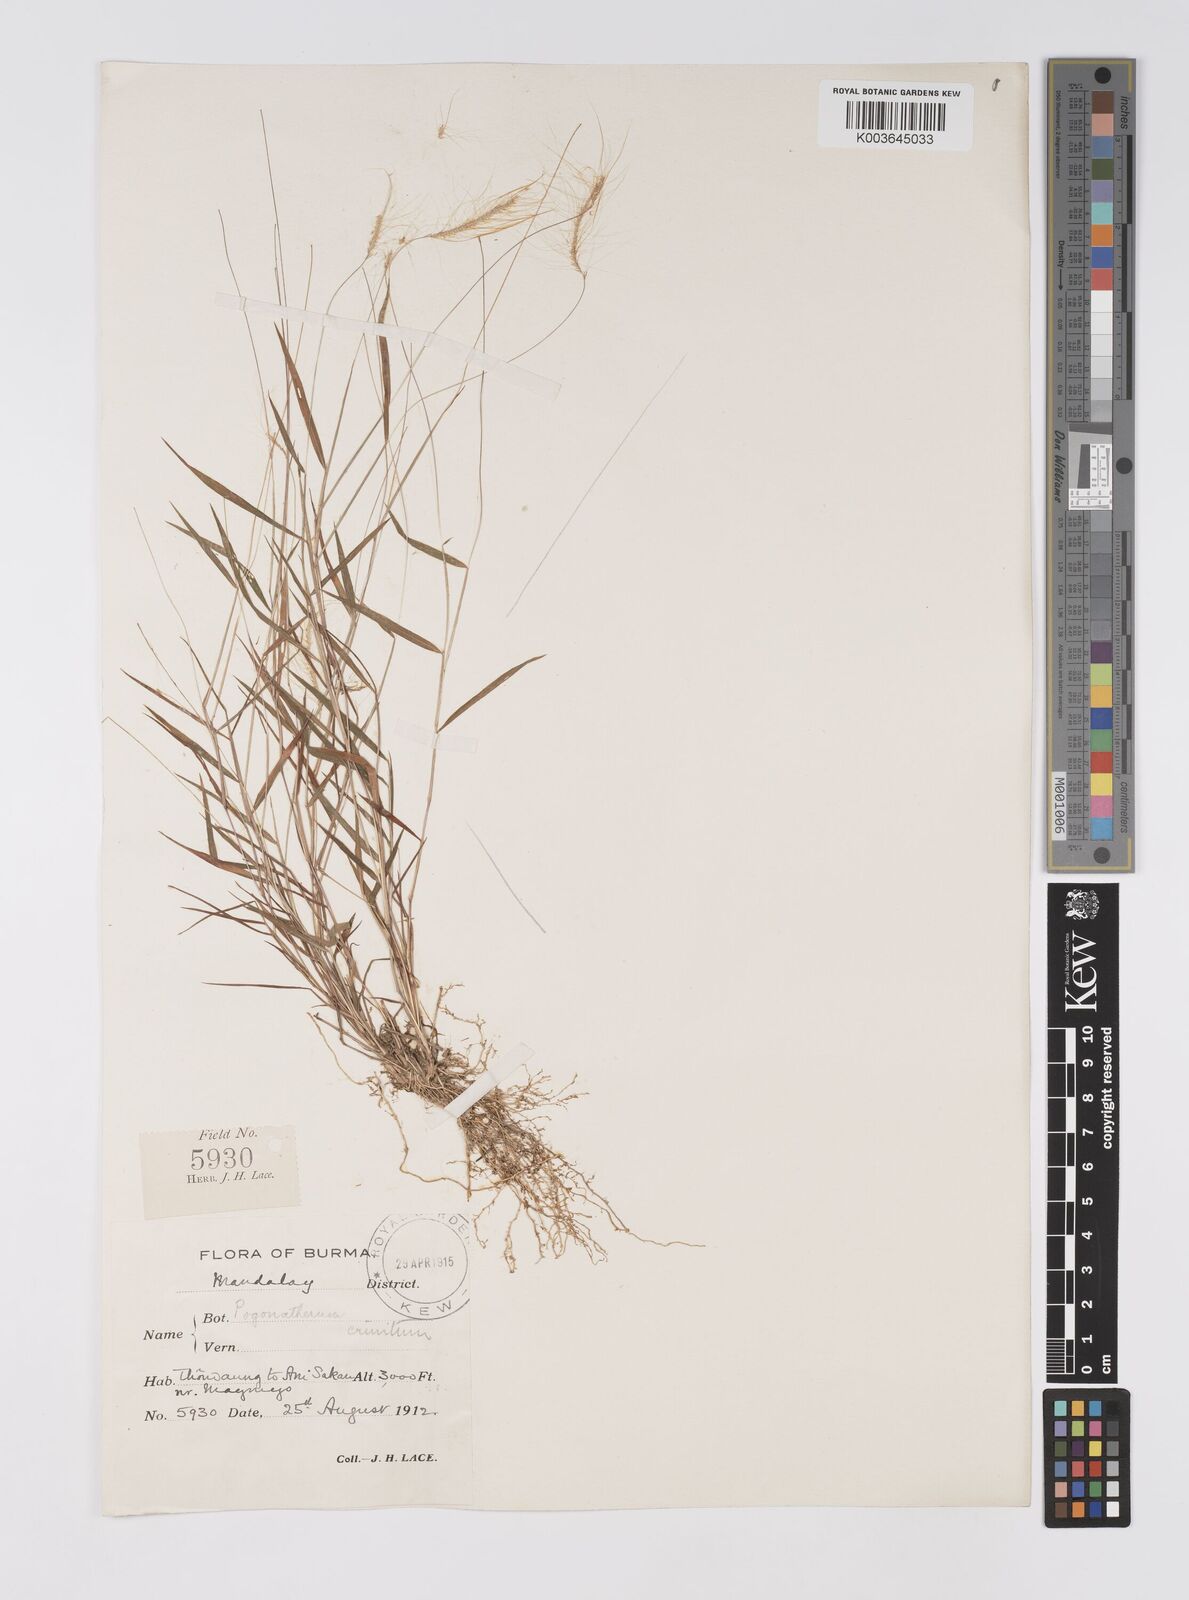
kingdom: Plantae
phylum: Tracheophyta
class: Liliopsida
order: Poales
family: Poaceae
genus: Pogonatherum
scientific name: Pogonatherum crinitum
